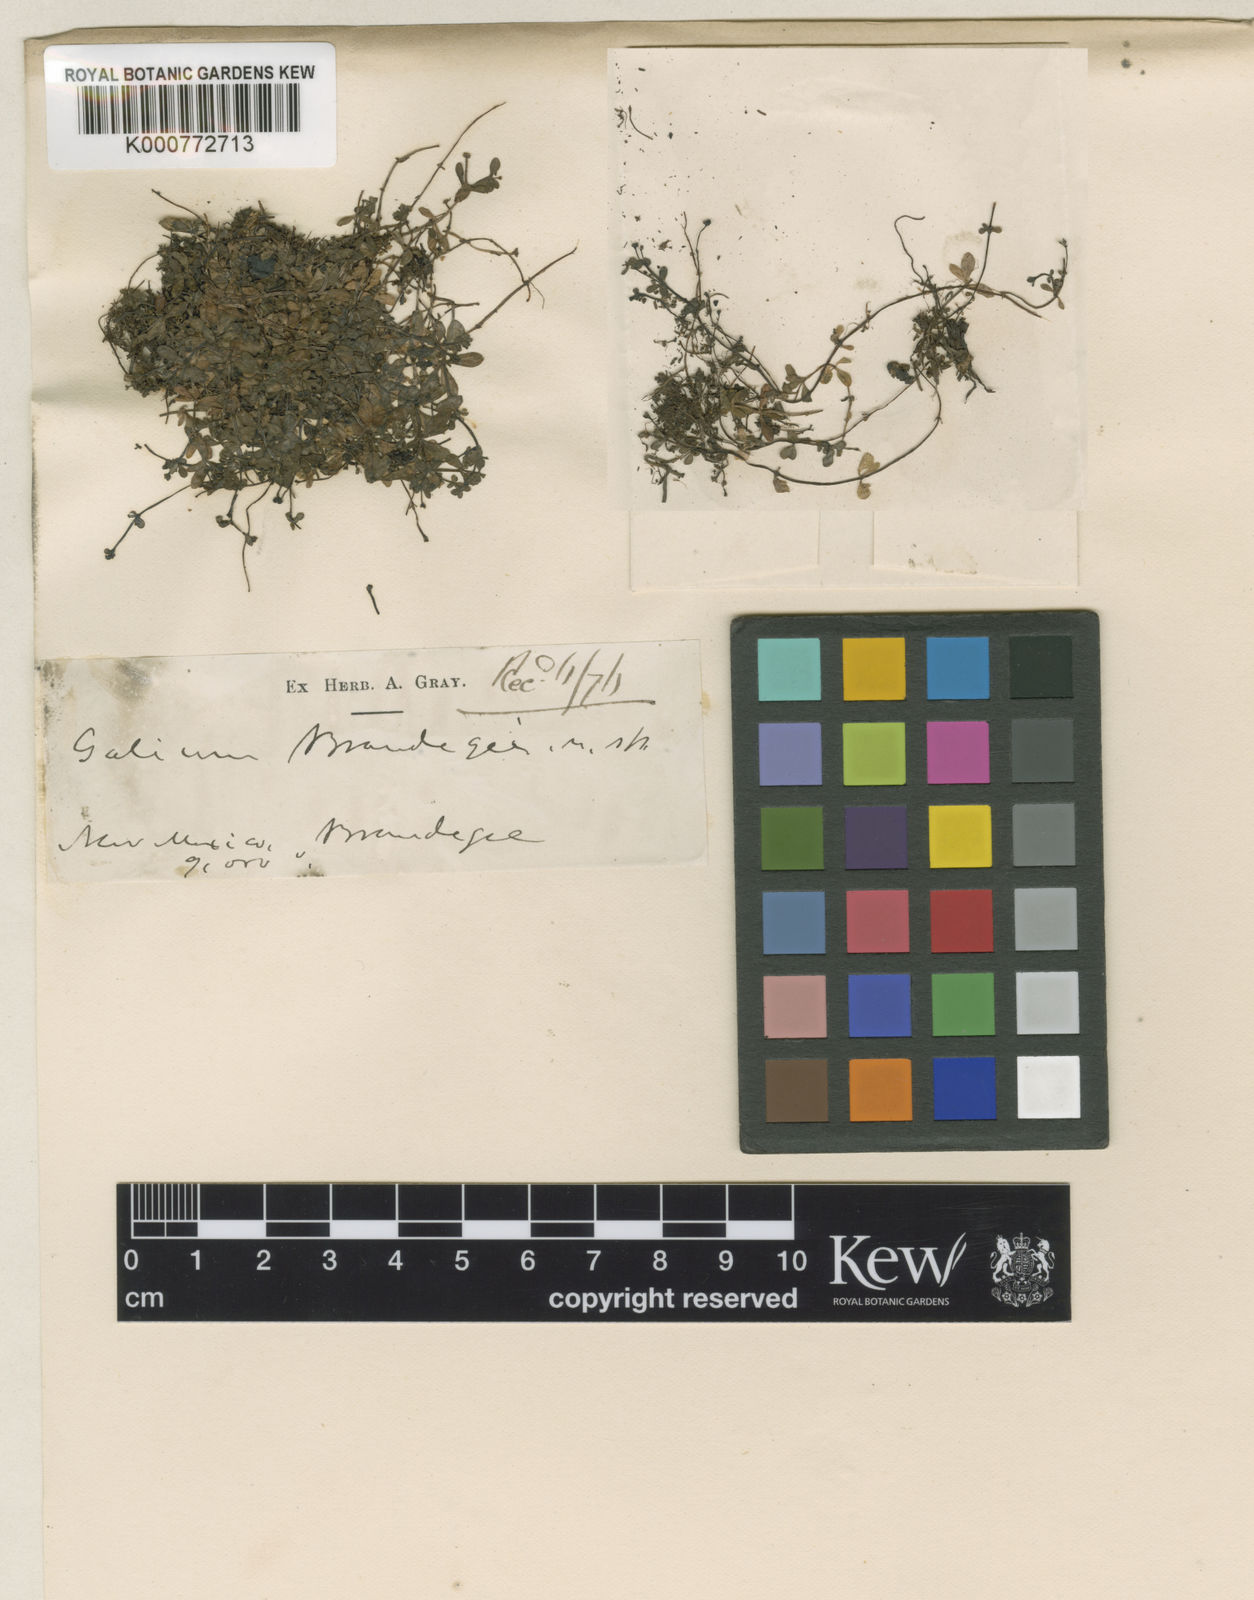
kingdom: Plantae
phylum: Tracheophyta
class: Magnoliopsida
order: Gentianales
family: Rubiaceae
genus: Galium
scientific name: Galium trifidum
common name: Small bedstraw
